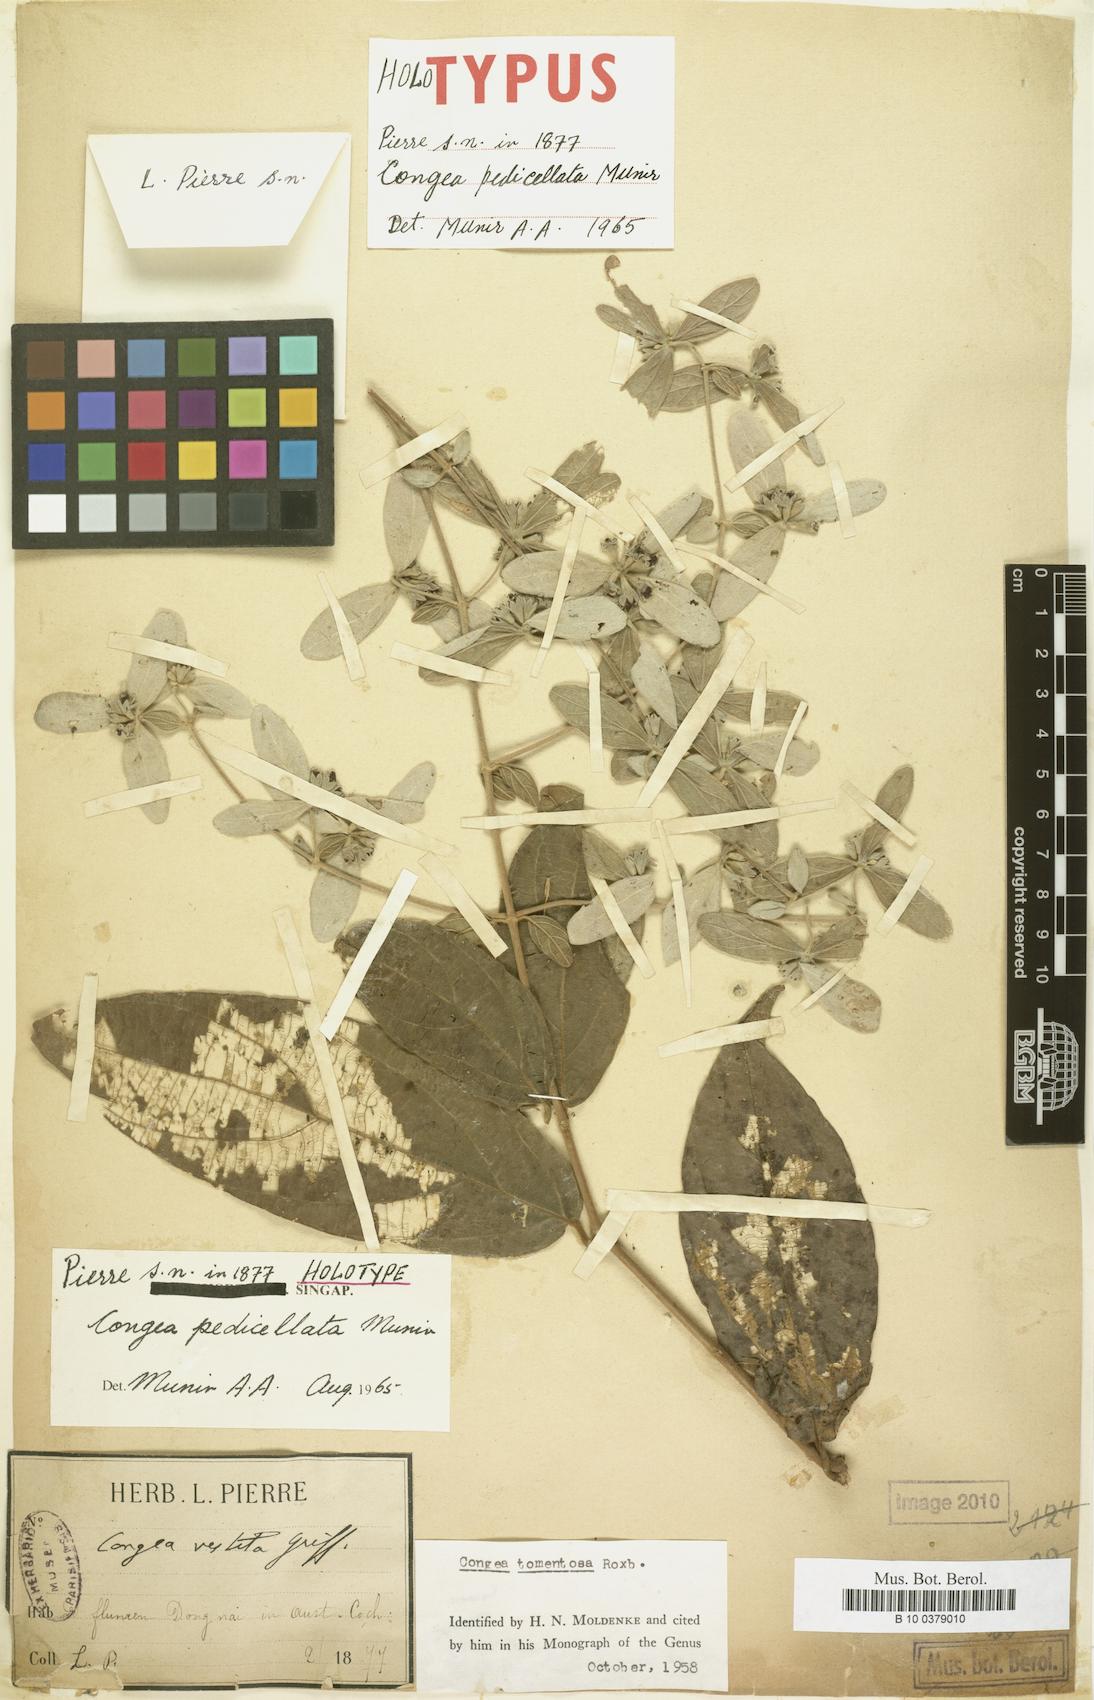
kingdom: Plantae
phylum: Tracheophyta
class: Magnoliopsida
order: Lamiales
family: Lamiaceae
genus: Congea
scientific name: Congea pedicellata
